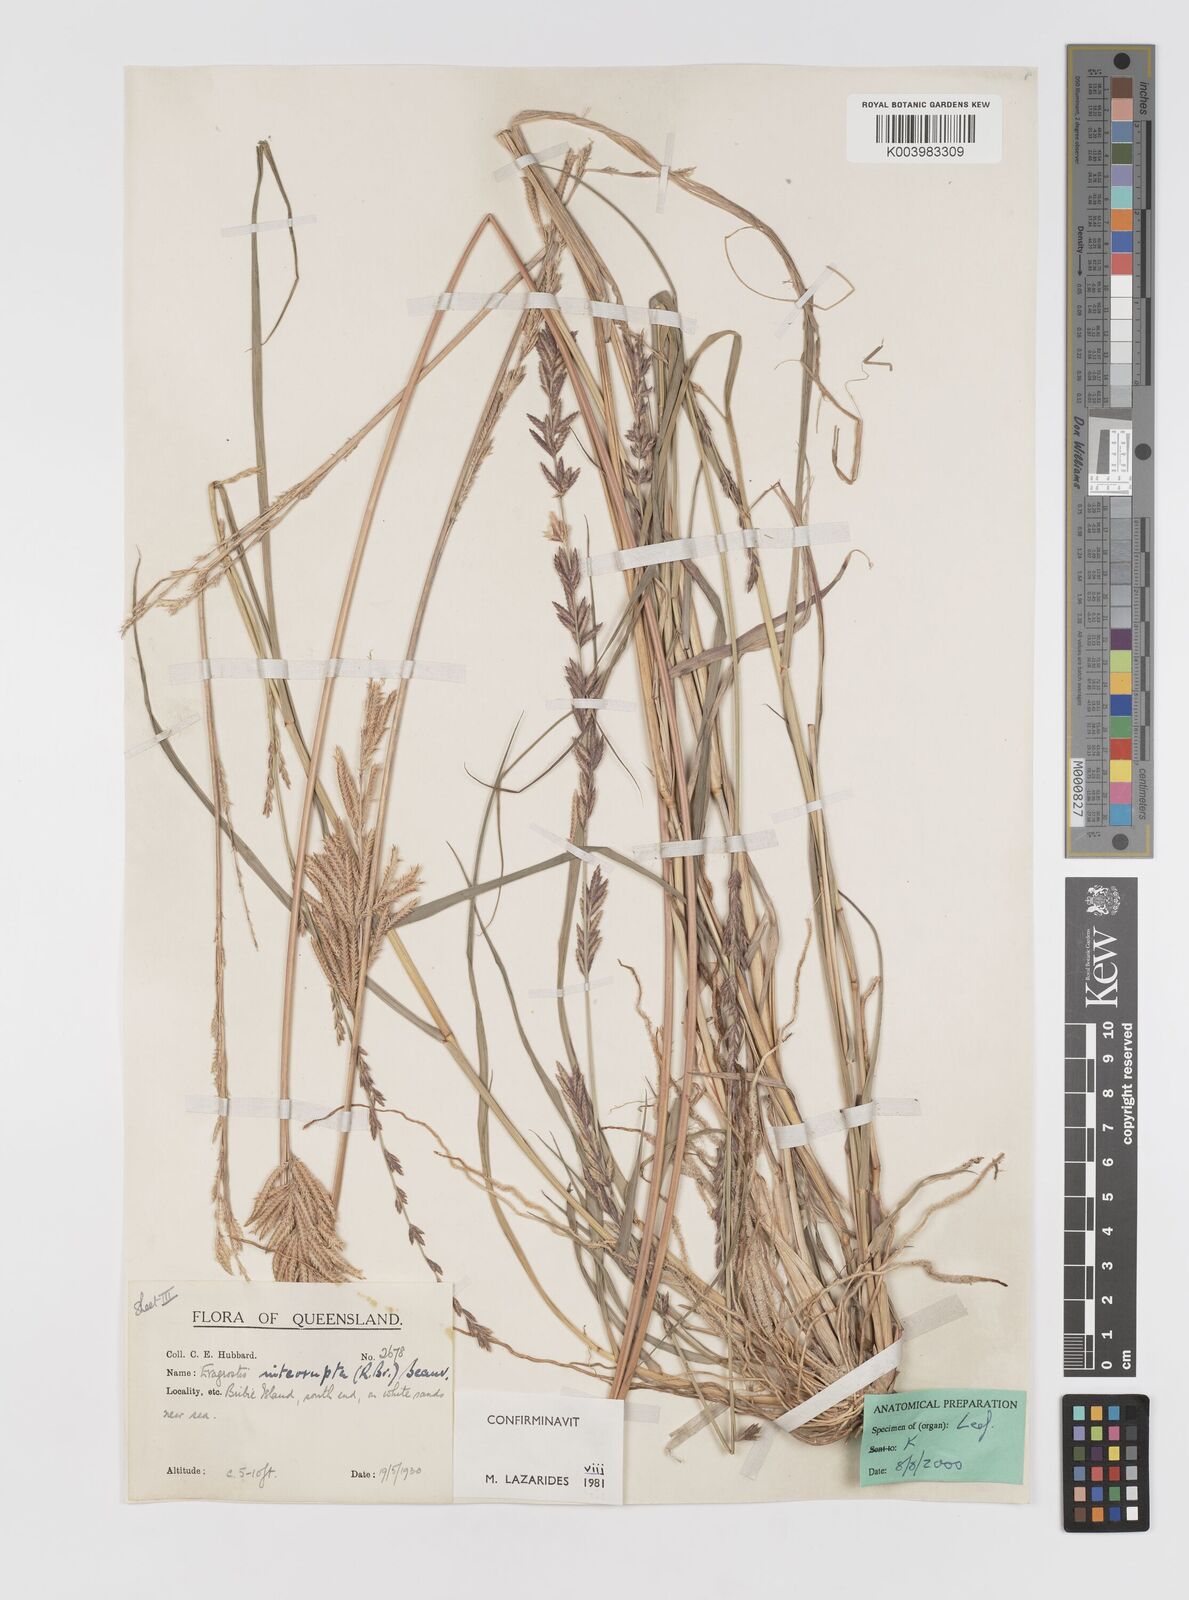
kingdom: Plantae
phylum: Tracheophyta
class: Liliopsida
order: Poales
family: Poaceae
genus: Eragrostis
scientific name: Eragrostis interrupta
